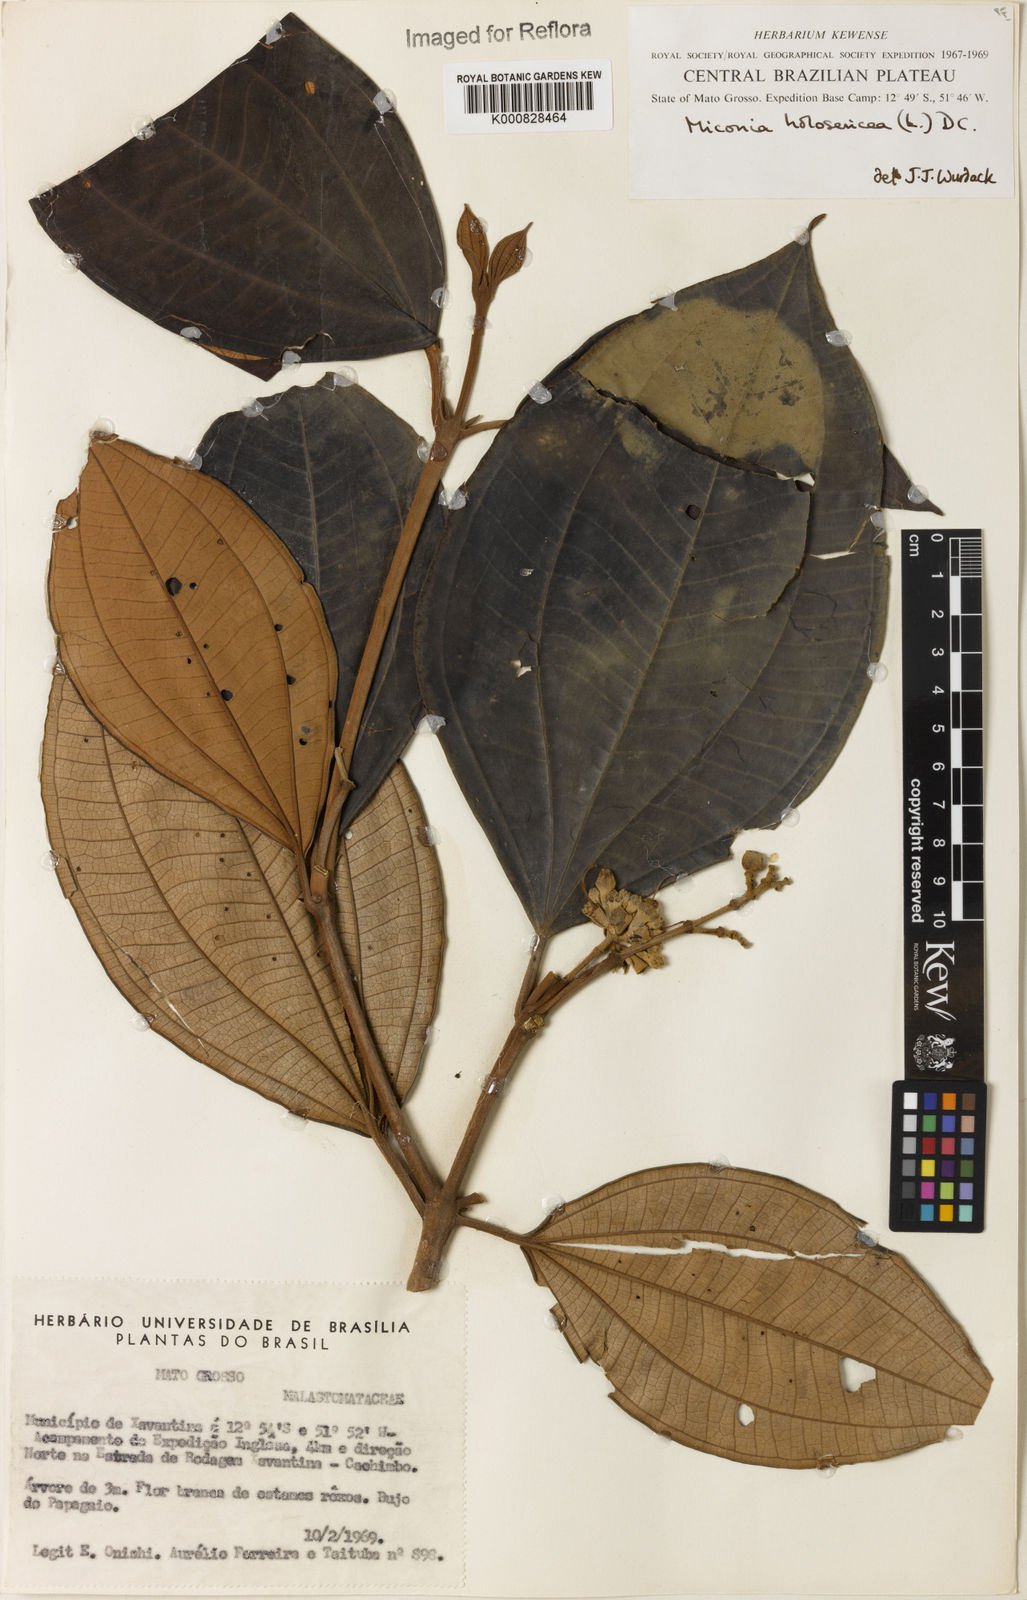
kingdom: Plantae
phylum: Tracheophyta
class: Magnoliopsida
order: Myrtales
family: Melastomataceae
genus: Miconia
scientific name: Miconia holosericea
